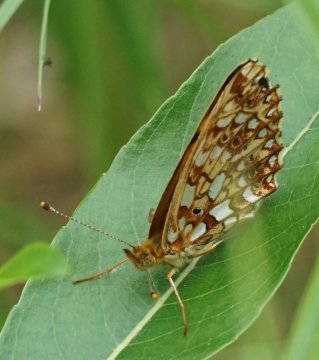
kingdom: Animalia
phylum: Arthropoda
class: Insecta
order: Lepidoptera
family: Nymphalidae
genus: Boloria
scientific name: Boloria selene
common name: Silver-bordered Fritillary
